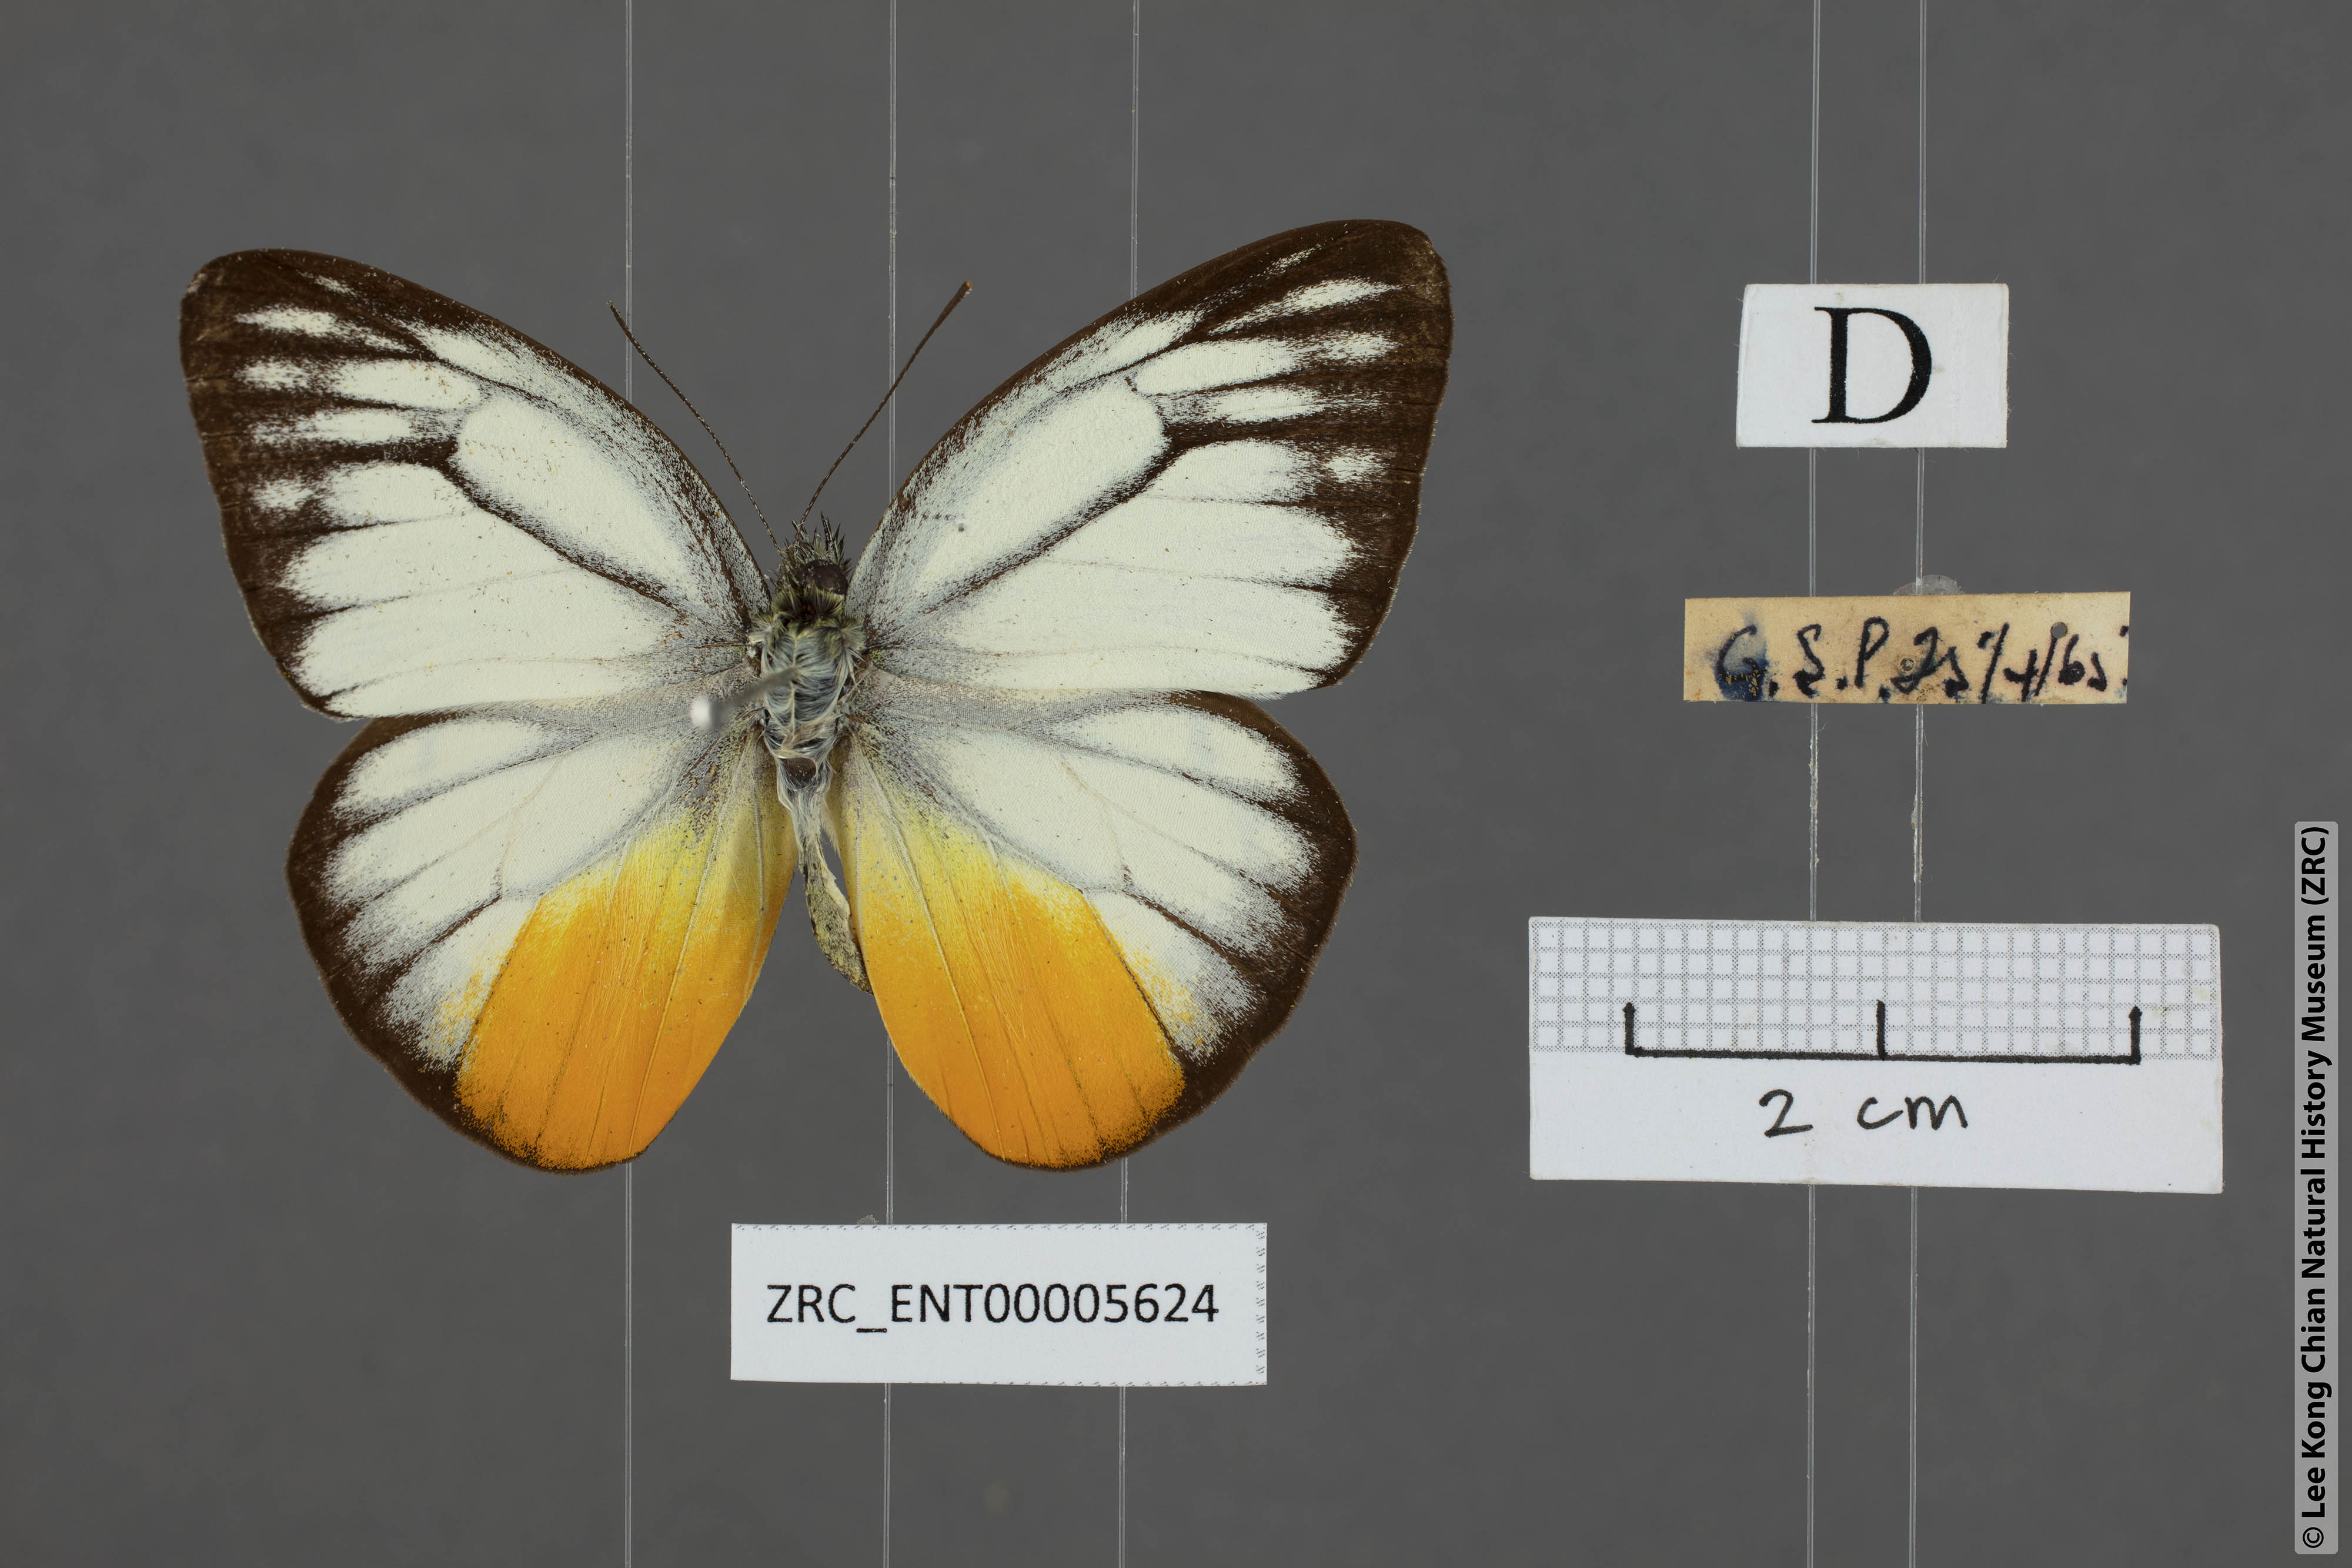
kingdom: Animalia
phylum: Arthropoda
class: Insecta
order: Lepidoptera
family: Pieridae
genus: Cepora
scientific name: Cepora iudith
